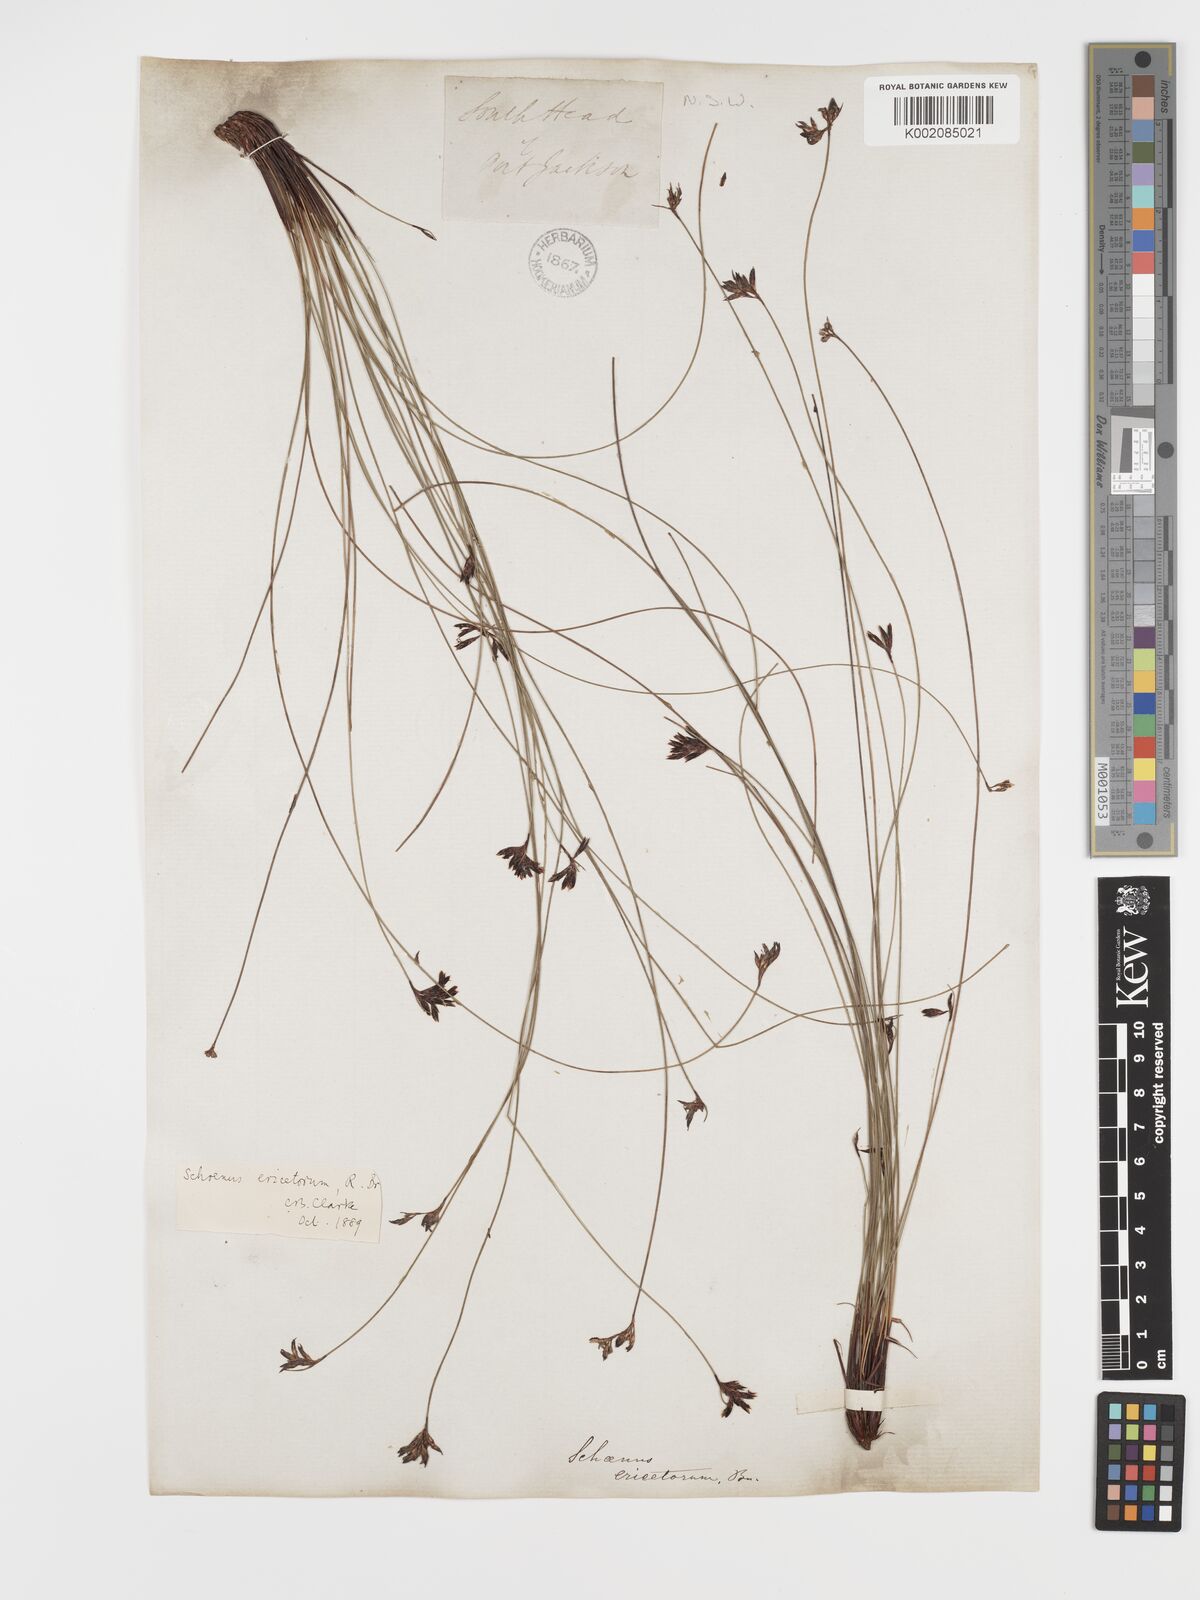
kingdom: Plantae
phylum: Tracheophyta
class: Liliopsida
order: Poales
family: Cyperaceae
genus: Schoenus
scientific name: Schoenus ericetorum
